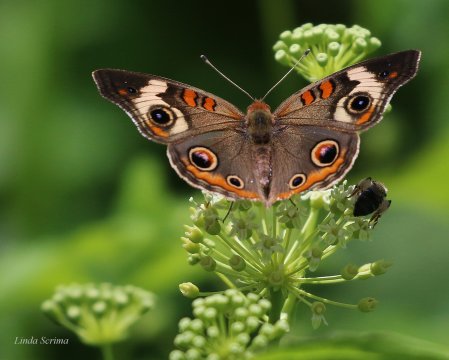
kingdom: Animalia
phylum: Arthropoda
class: Insecta
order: Lepidoptera
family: Nymphalidae
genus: Junonia
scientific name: Junonia coenia
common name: Common Buckeye
